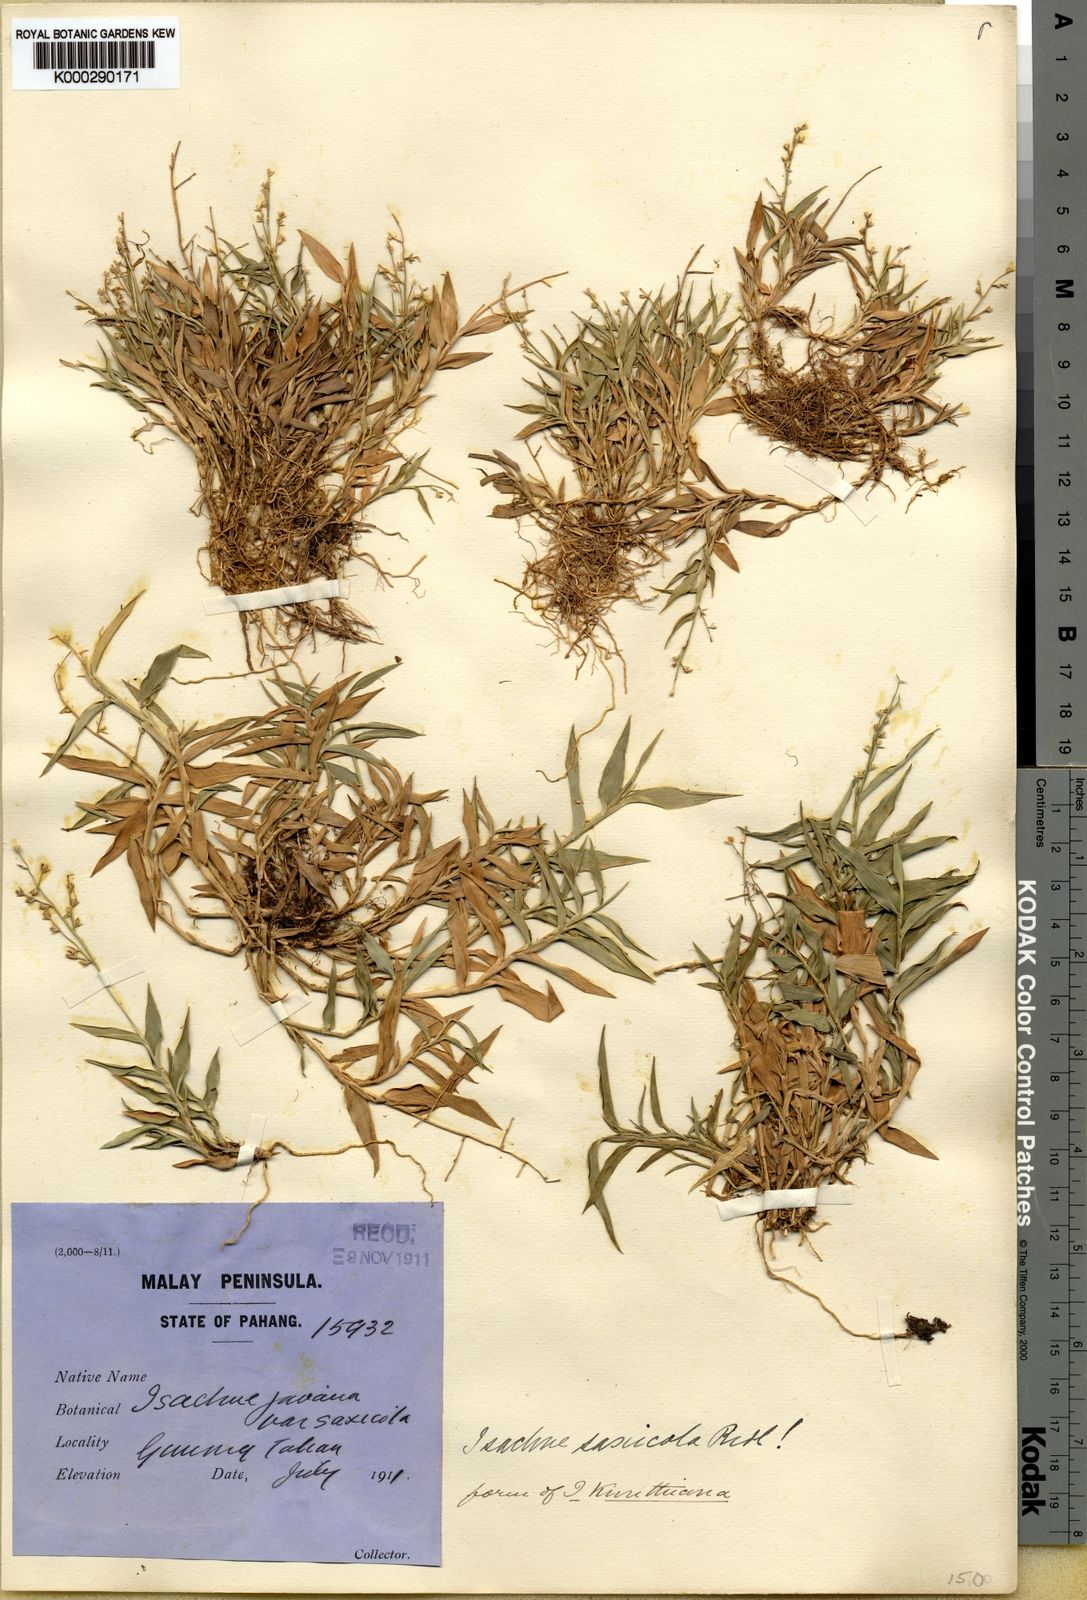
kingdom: Plantae
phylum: Tracheophyta
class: Liliopsida
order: Poales
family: Poaceae
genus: Isachne
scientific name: Isachne clementis
